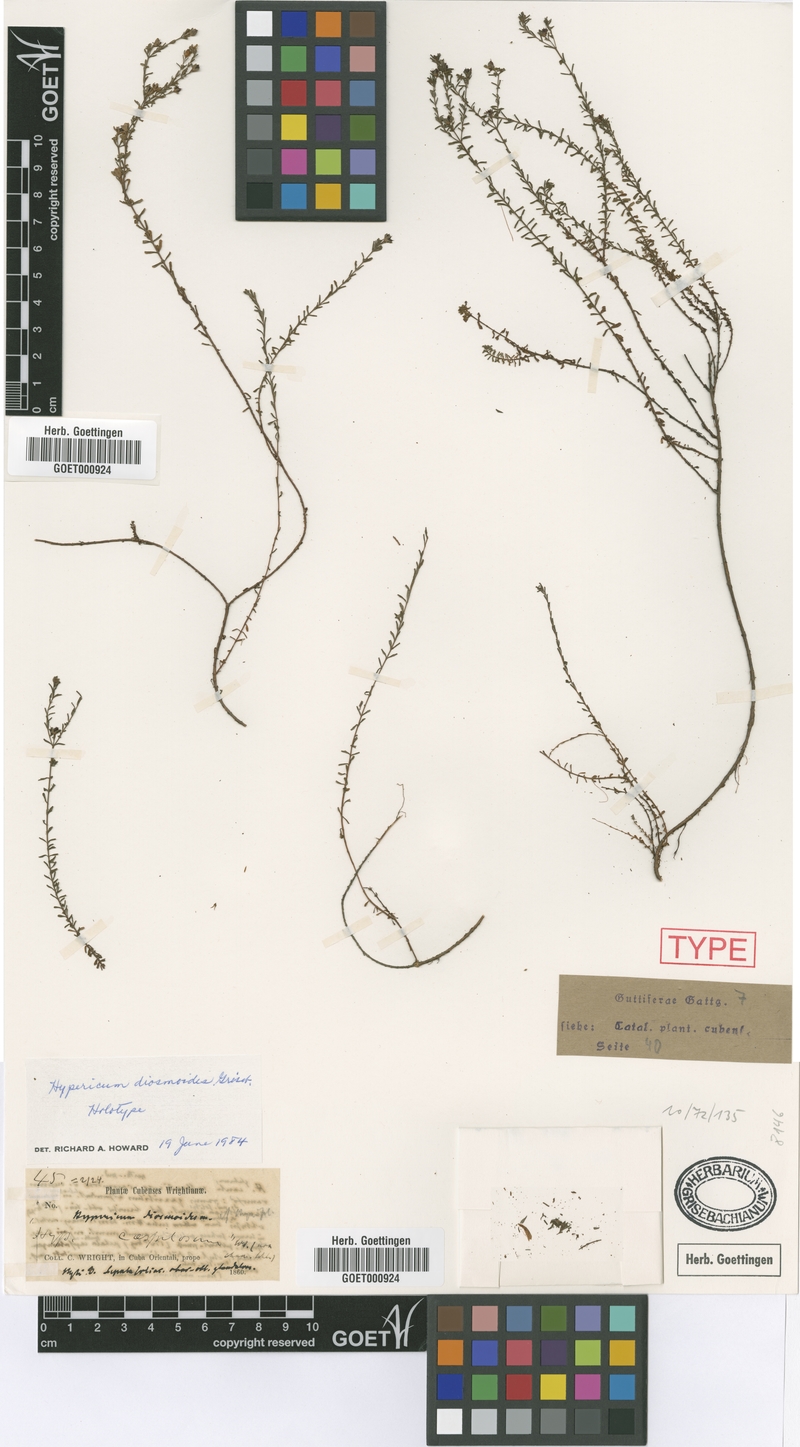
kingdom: Plantae
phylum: Tracheophyta
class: Magnoliopsida
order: Malpighiales
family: Hypericaceae
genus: Hypericum
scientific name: Hypericum diosmoides
